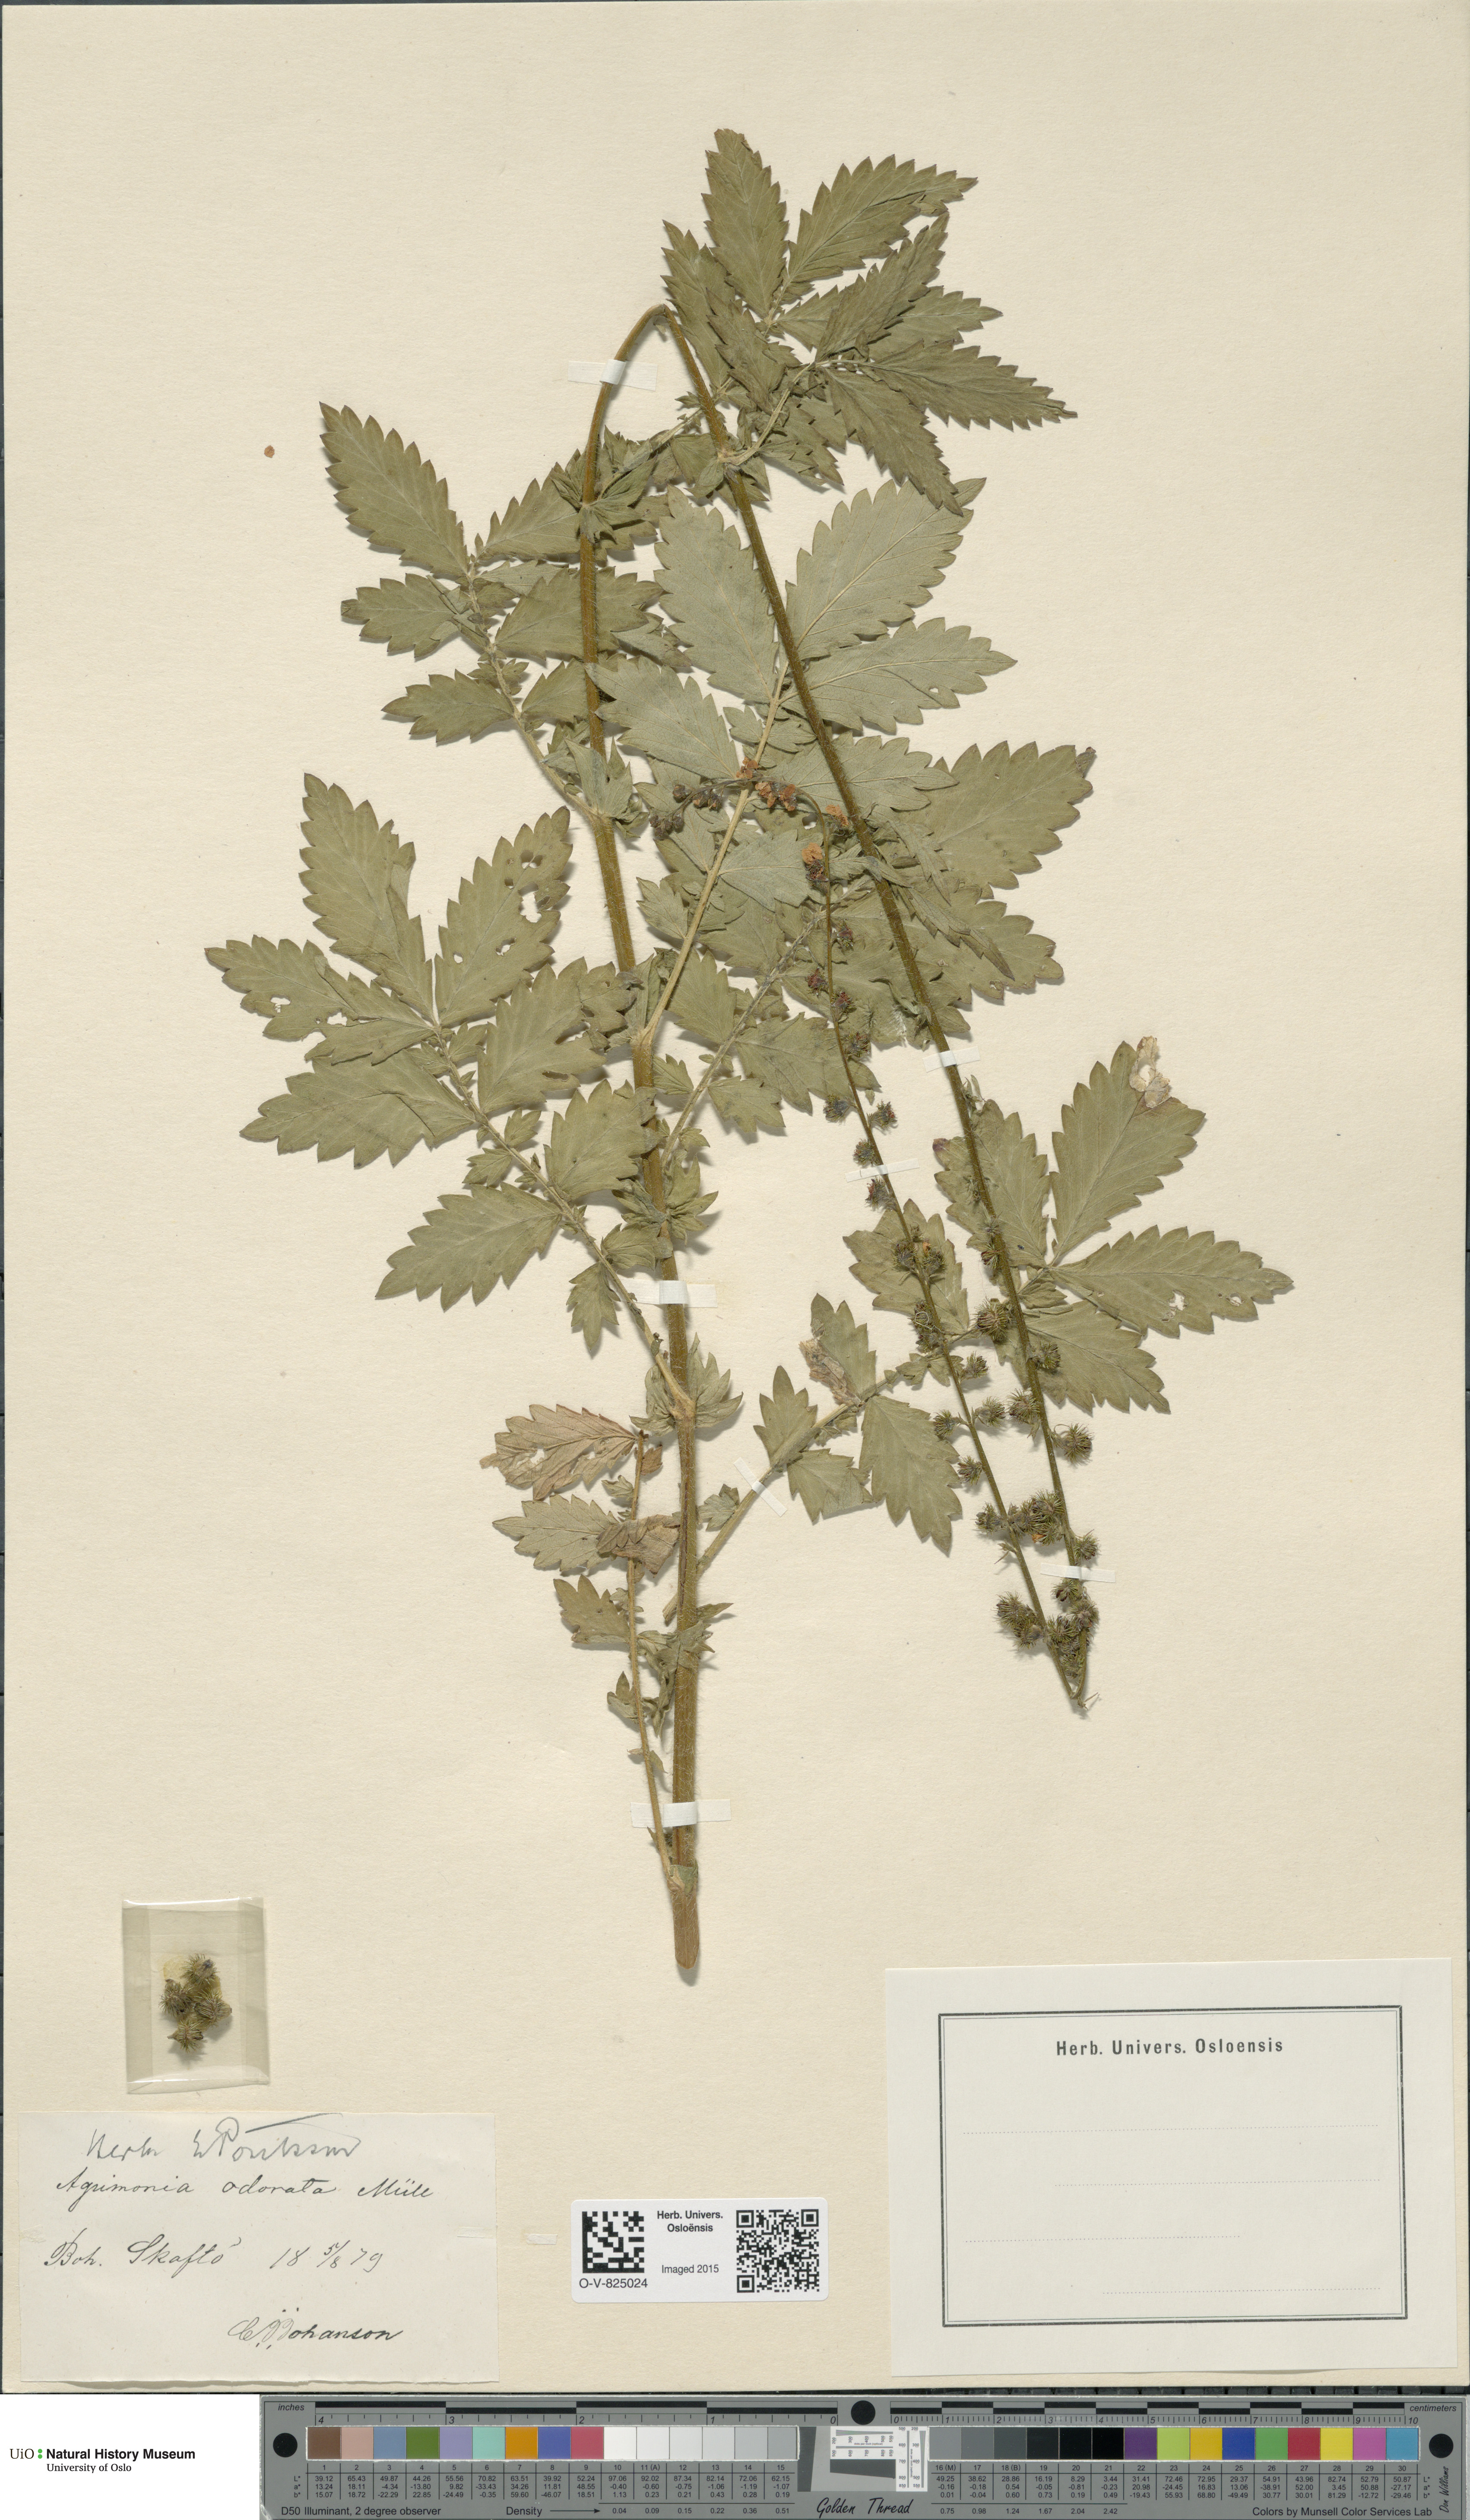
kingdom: Plantae
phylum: Tracheophyta
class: Magnoliopsida
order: Rosales
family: Rosaceae
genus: Agrimonia
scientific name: Agrimonia procera
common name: Fragrant agrimony
